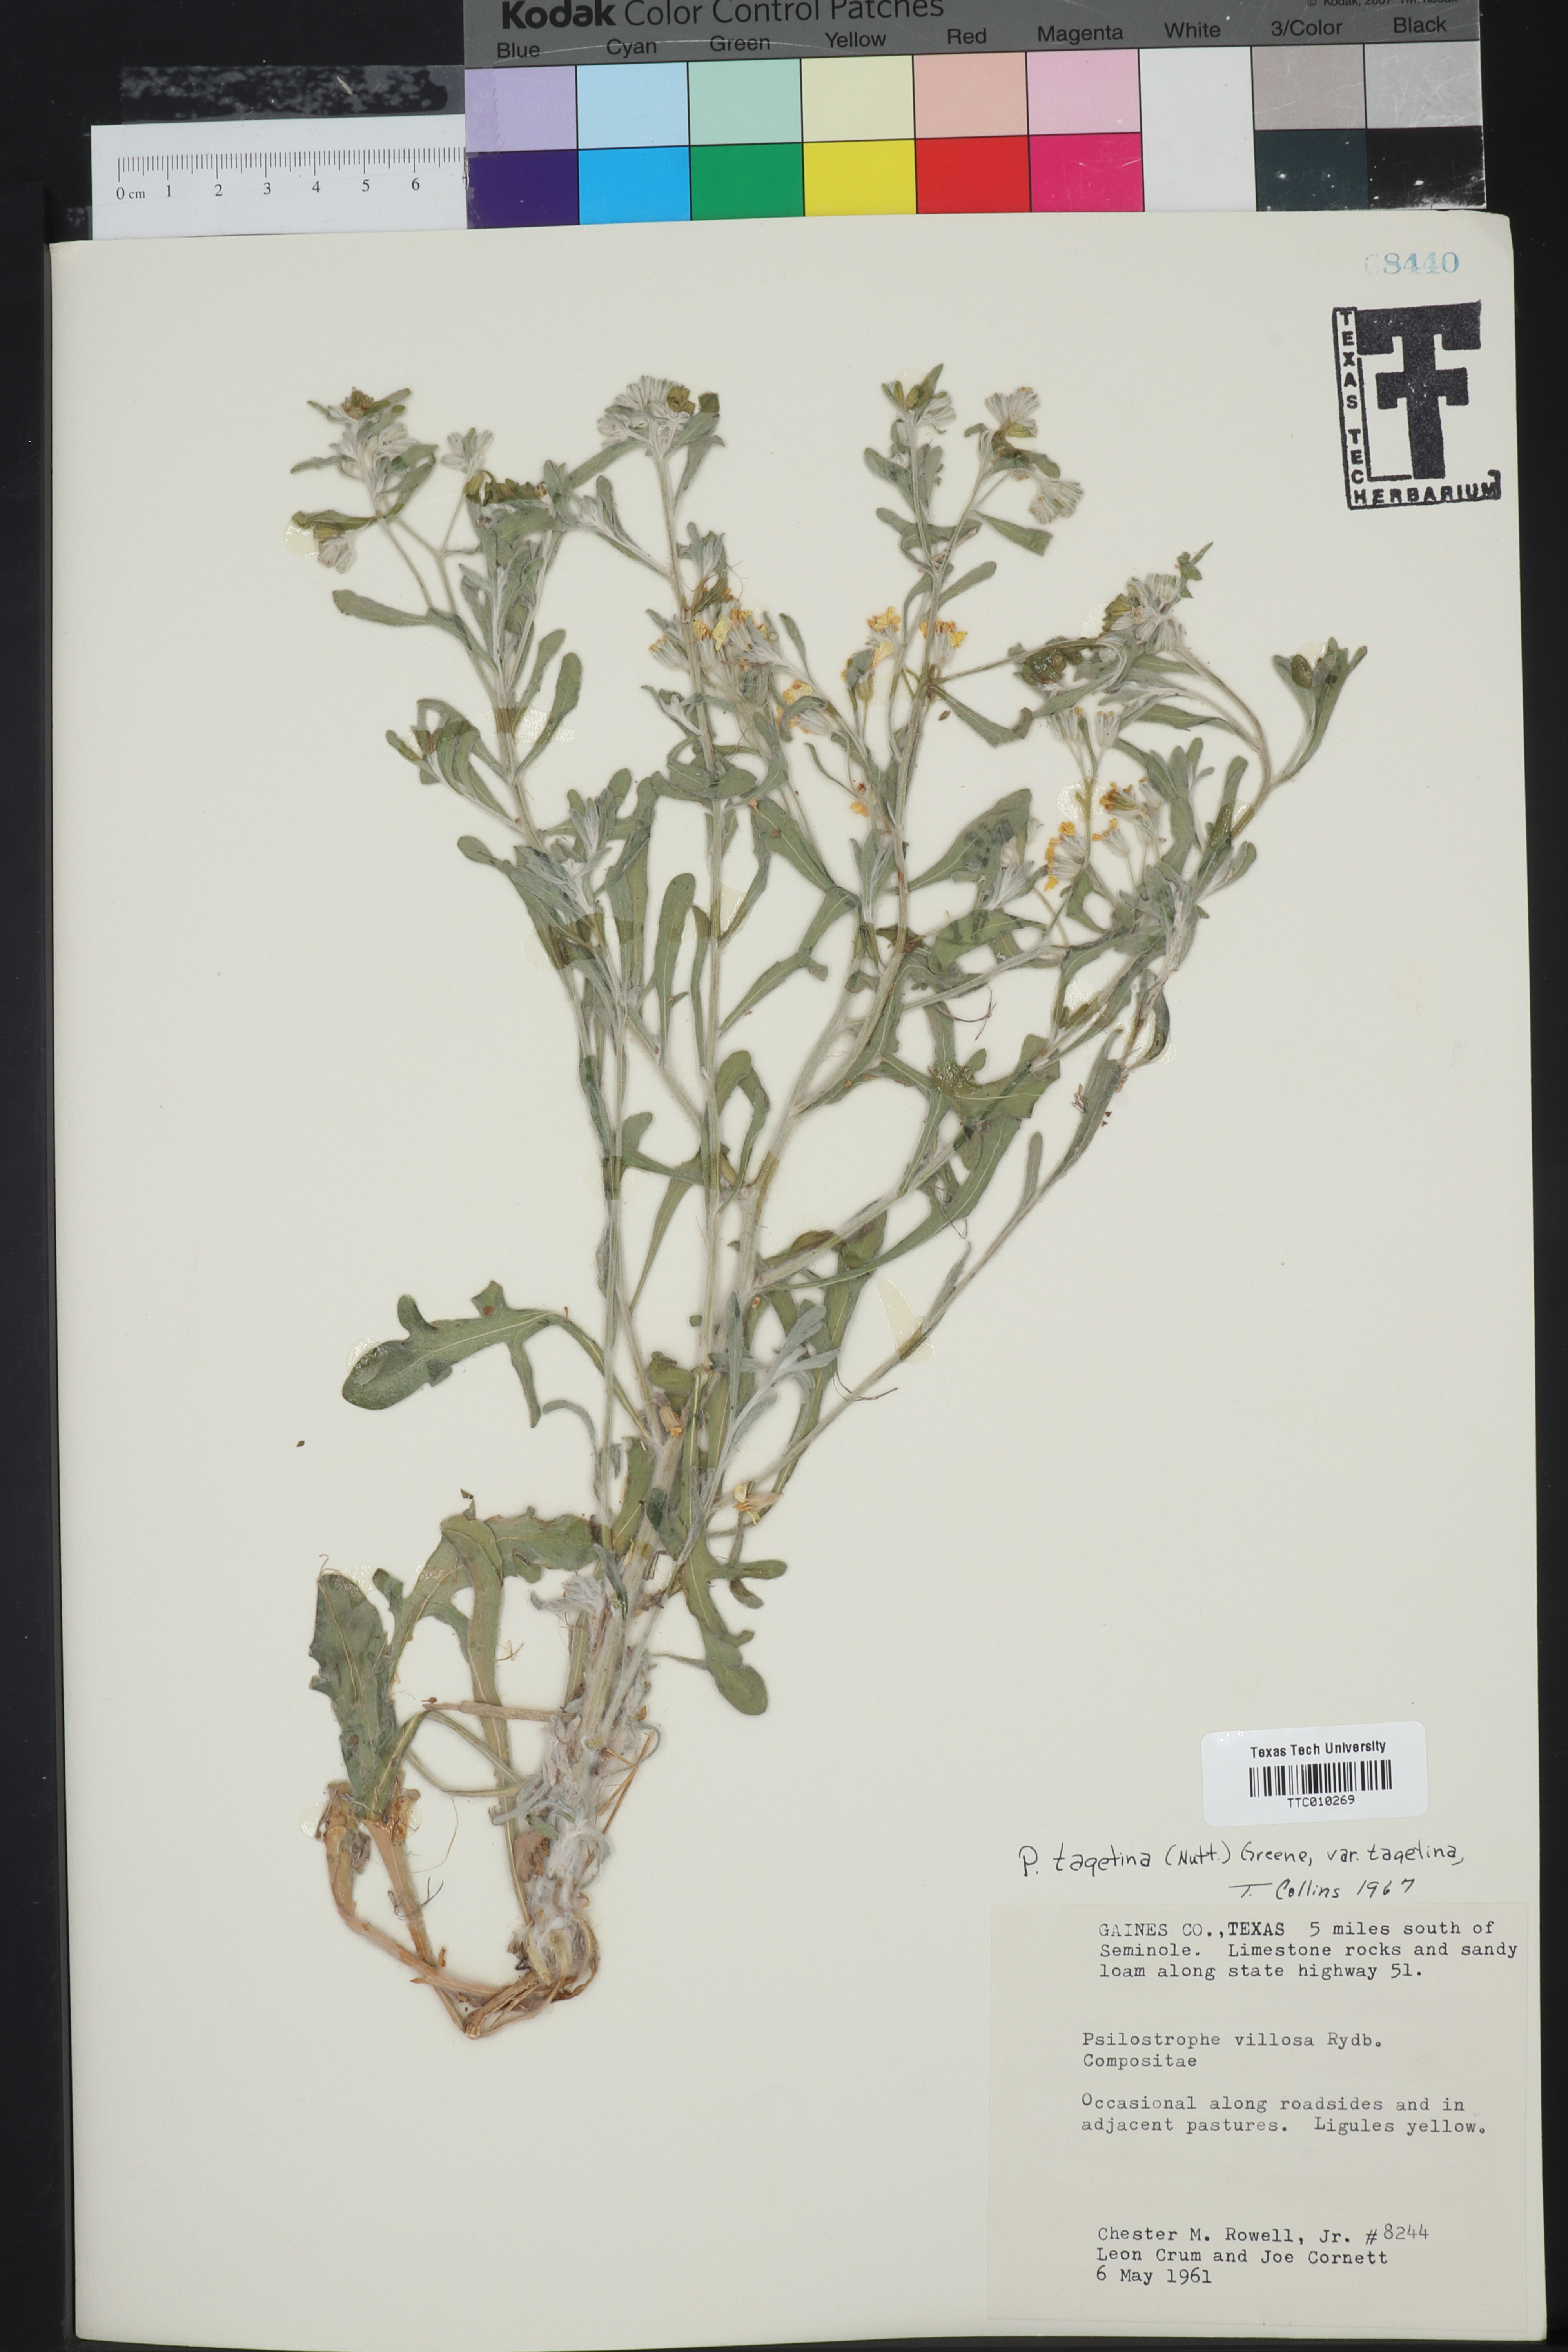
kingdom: Plantae
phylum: Tracheophyta
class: Magnoliopsida
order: Asterales
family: Asteraceae
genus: Psilostrophe
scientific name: Psilostrophe tagetina
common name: Marigold paper-flower
